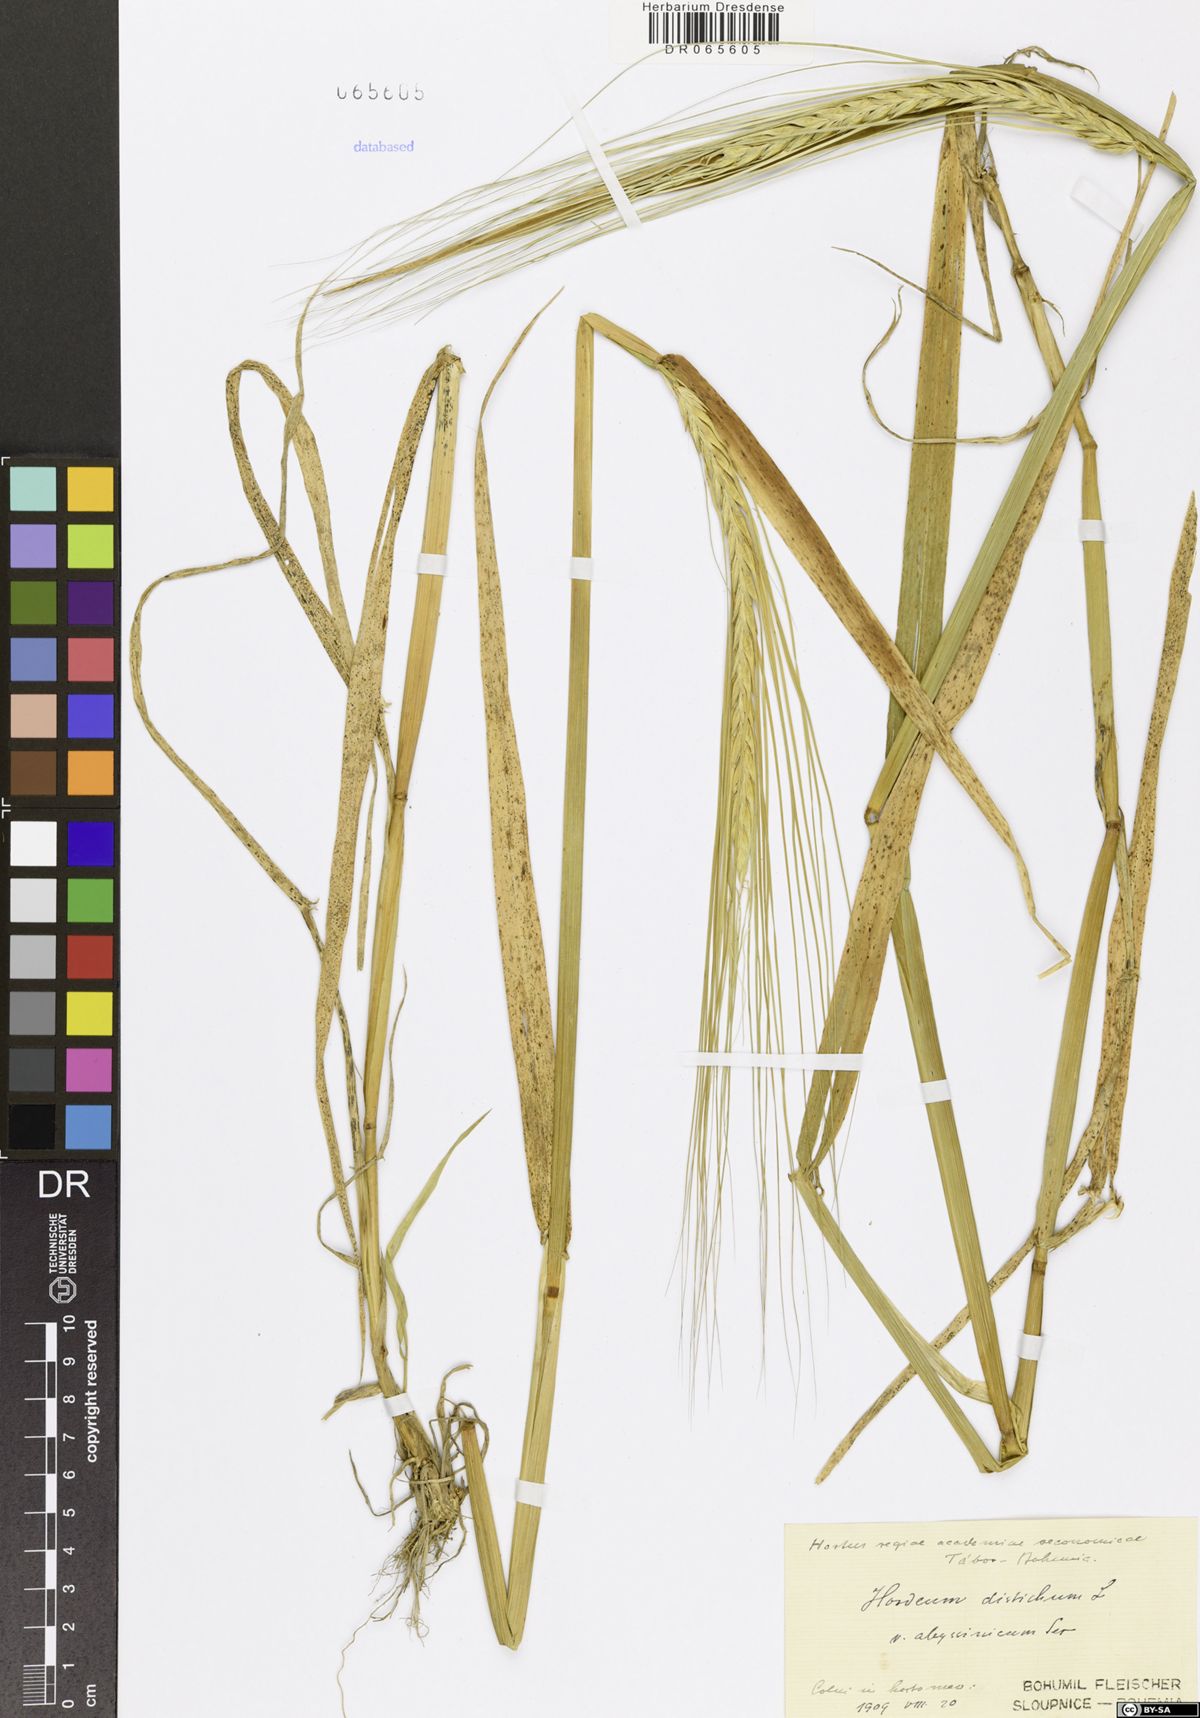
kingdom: Plantae
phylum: Tracheophyta
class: Liliopsida
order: Poales
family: Poaceae
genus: Hordeum
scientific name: Hordeum distichon
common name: Two-rowed barley
